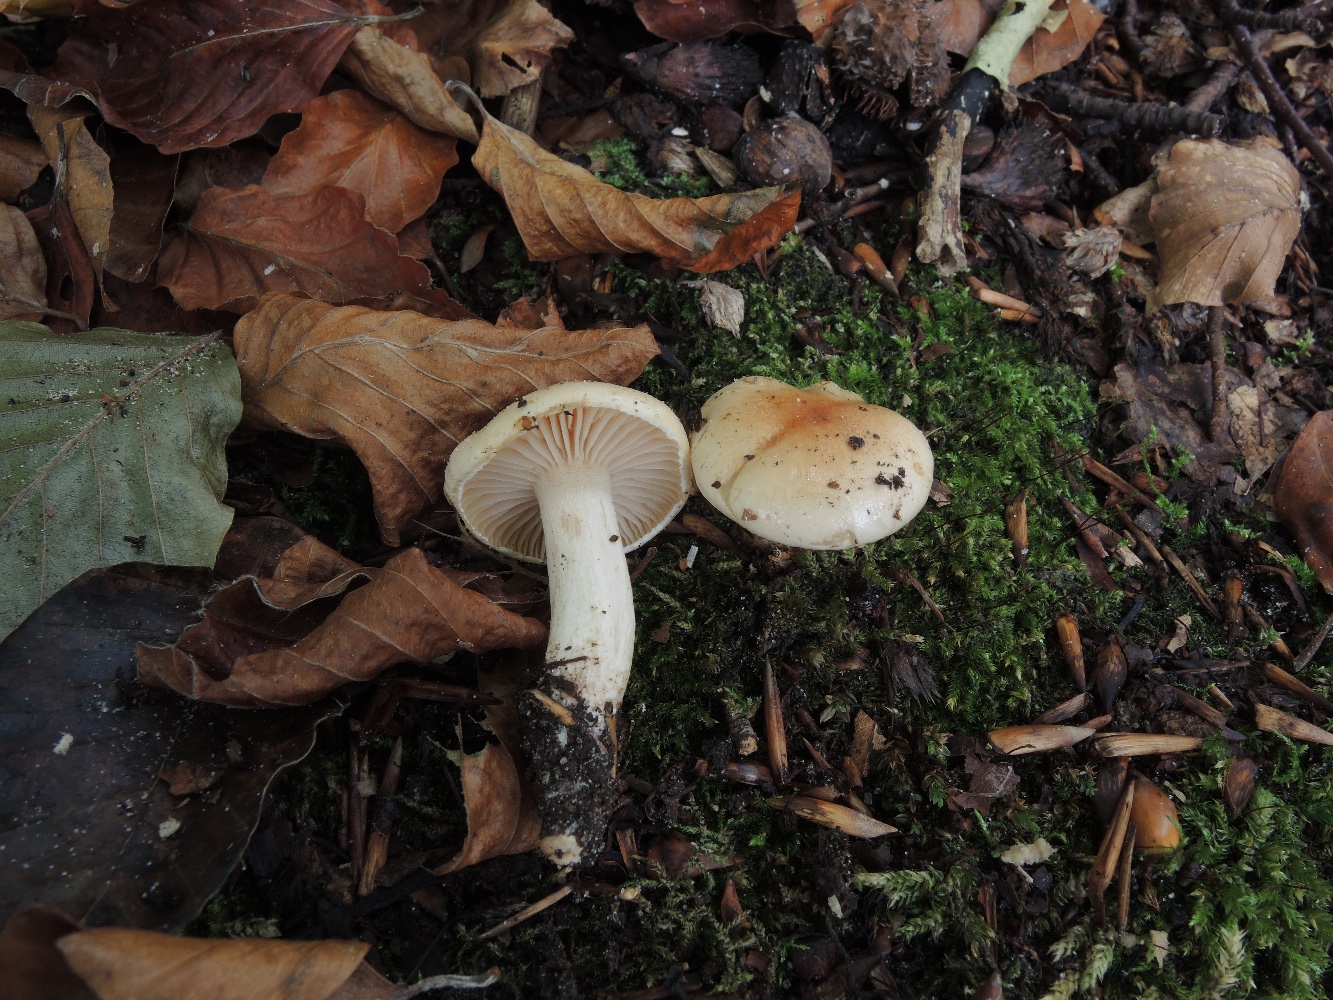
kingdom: Fungi
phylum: Basidiomycota
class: Agaricomycetes
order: Agaricales
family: Hygrophoraceae
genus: Hygrophorus
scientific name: Hygrophorus unicolor
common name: orangeøjet sneglehat
